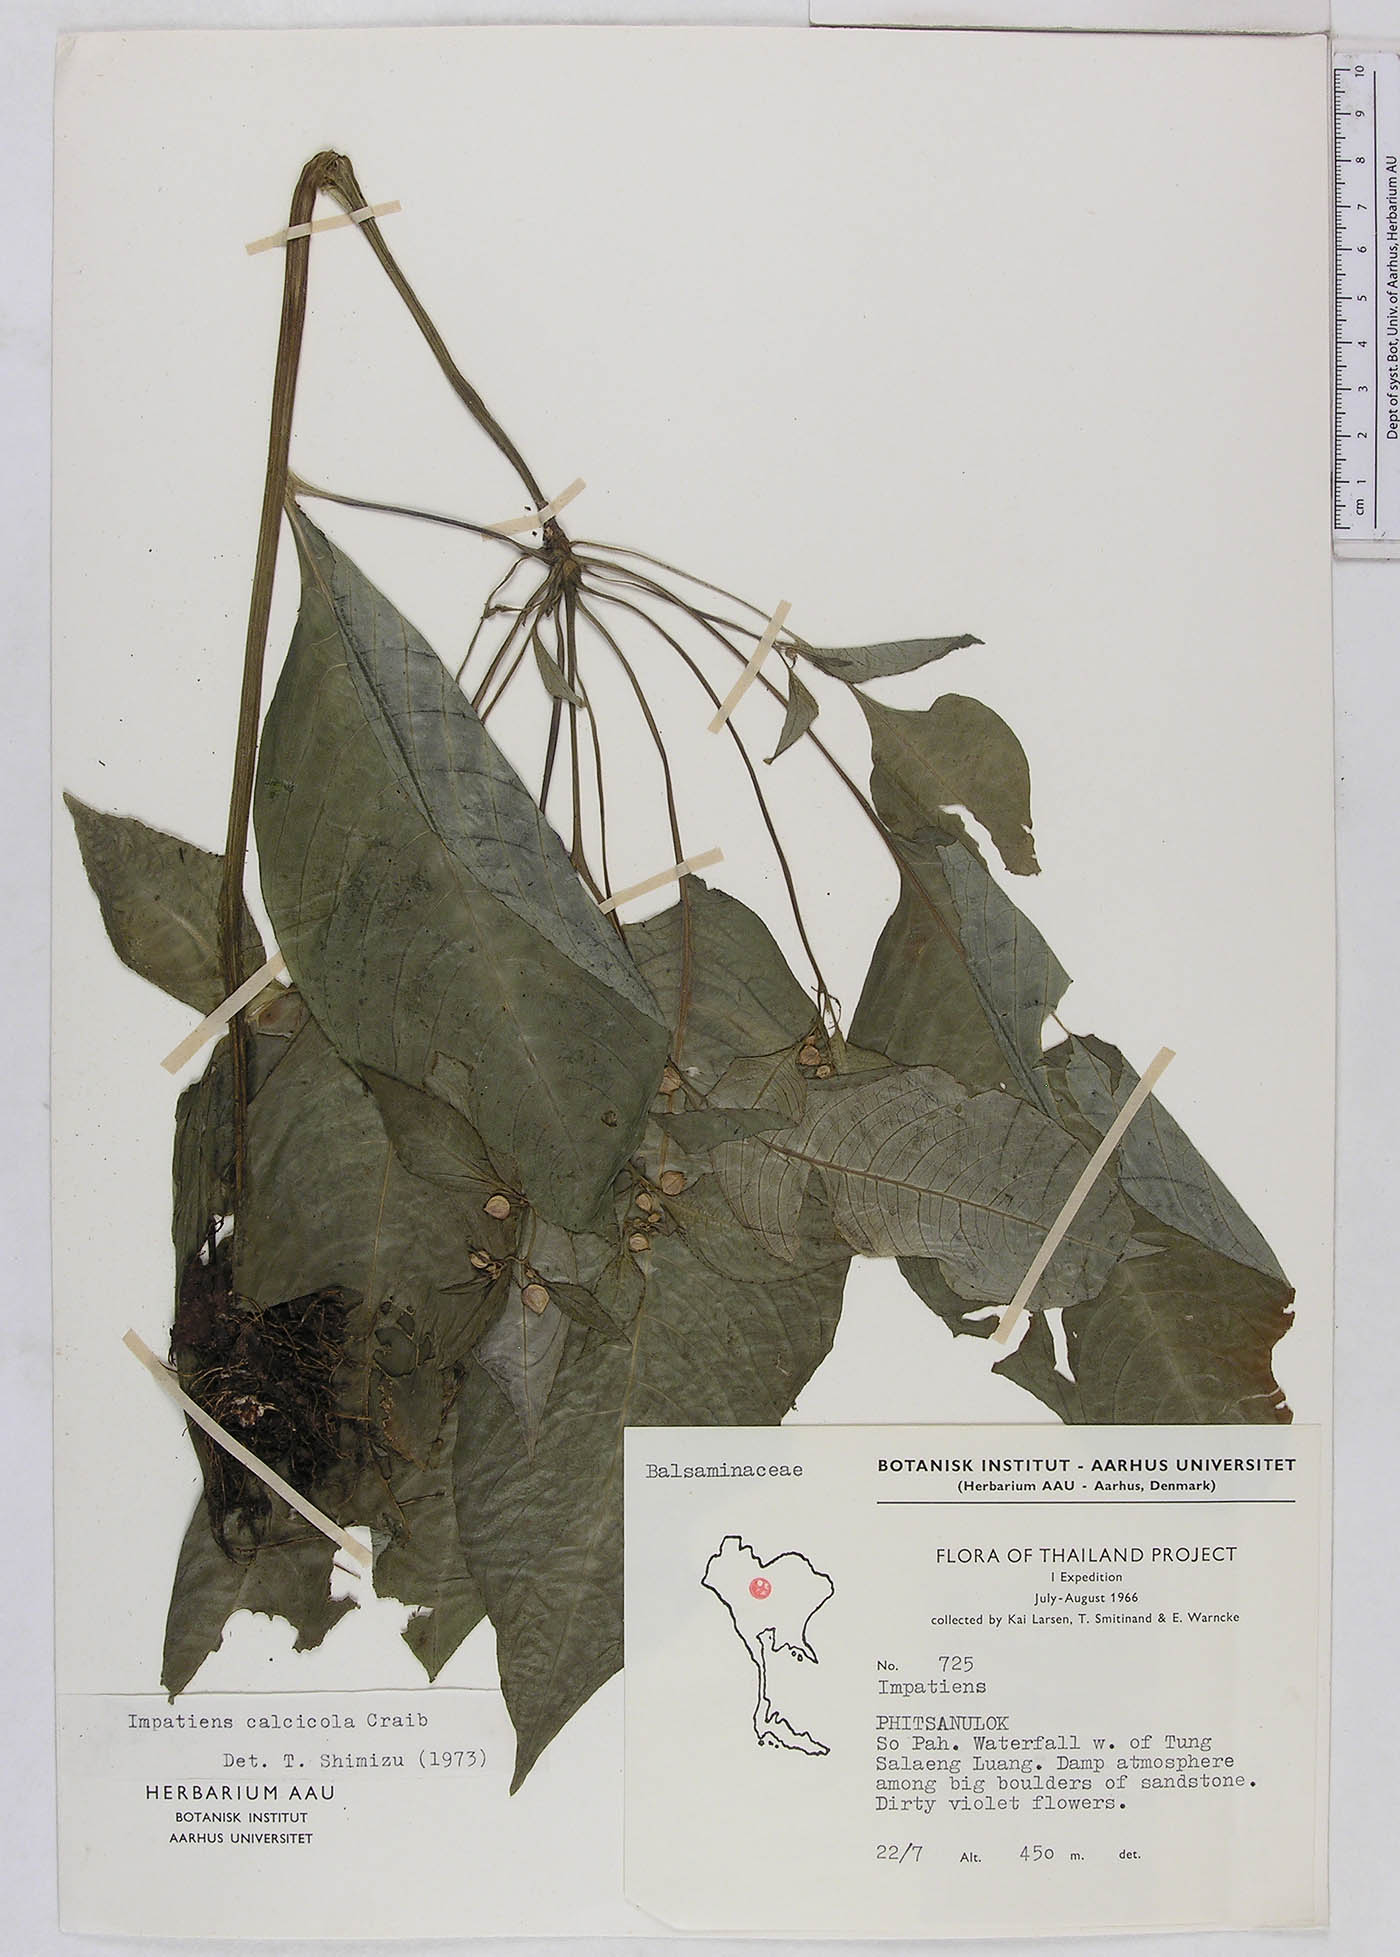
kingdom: Plantae
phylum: Tracheophyta
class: Magnoliopsida
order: Ericales
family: Balsaminaceae
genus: Impatiens
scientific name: Impatiens vaughanii
